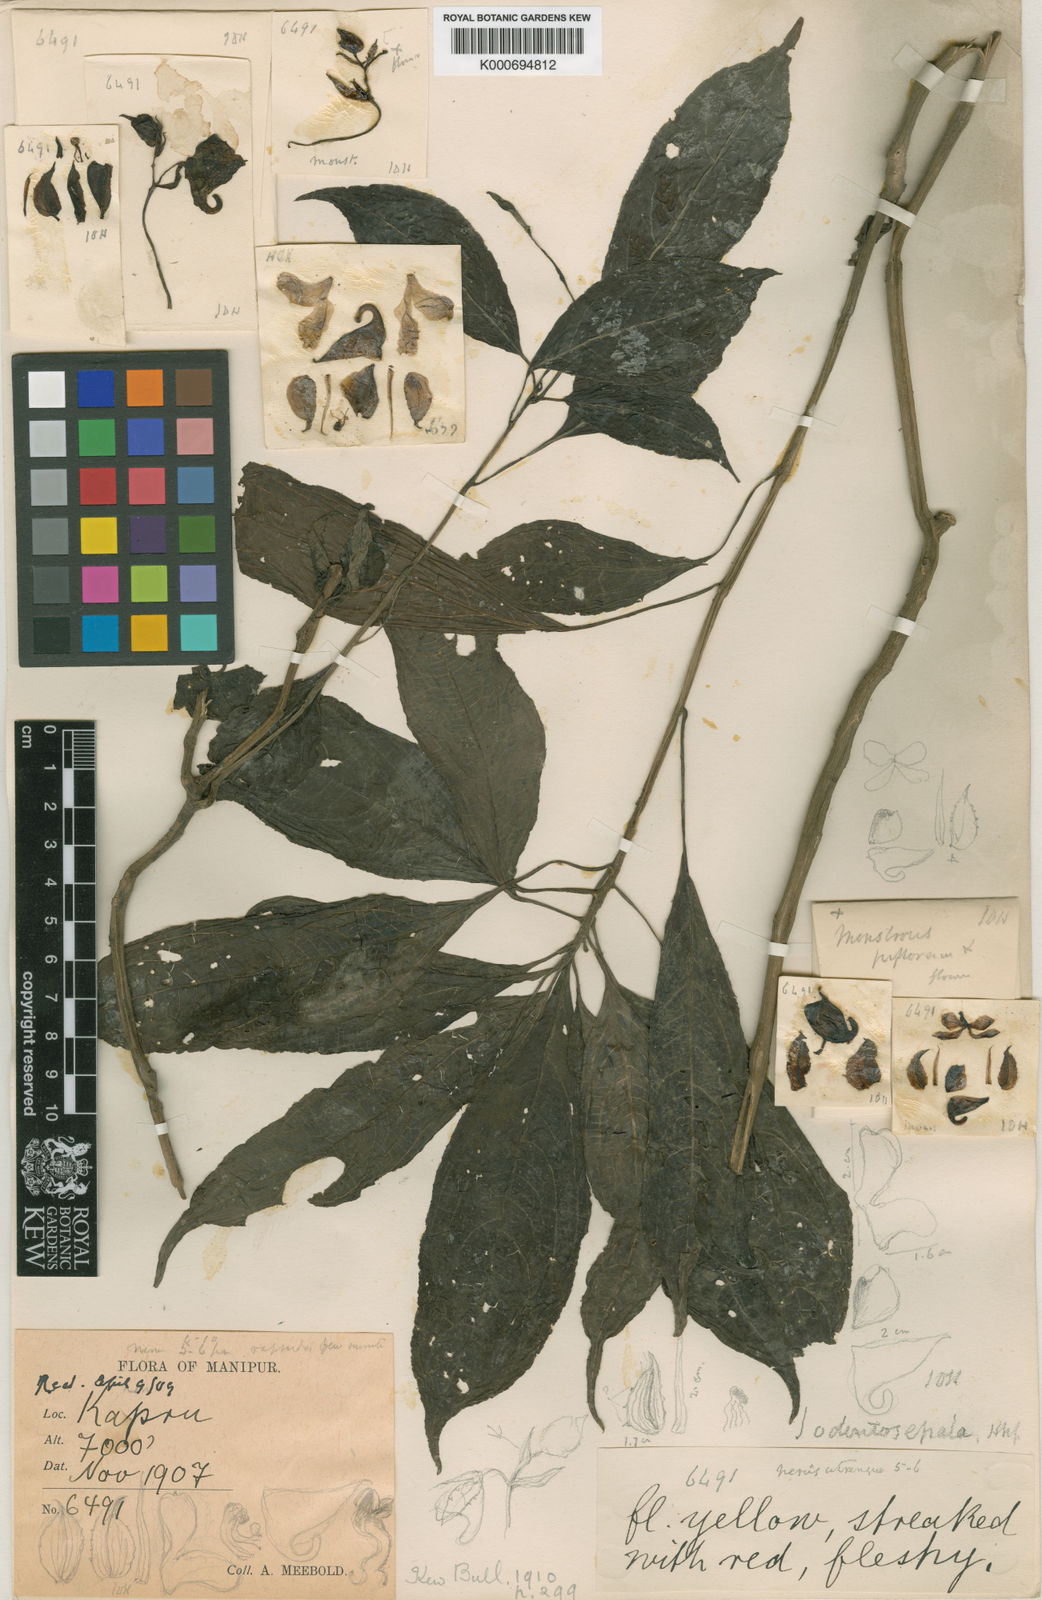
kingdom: Plantae
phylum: Tracheophyta
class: Magnoliopsida
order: Ericales
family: Balsaminaceae
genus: Impatiens
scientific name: Impatiens odontosepala
